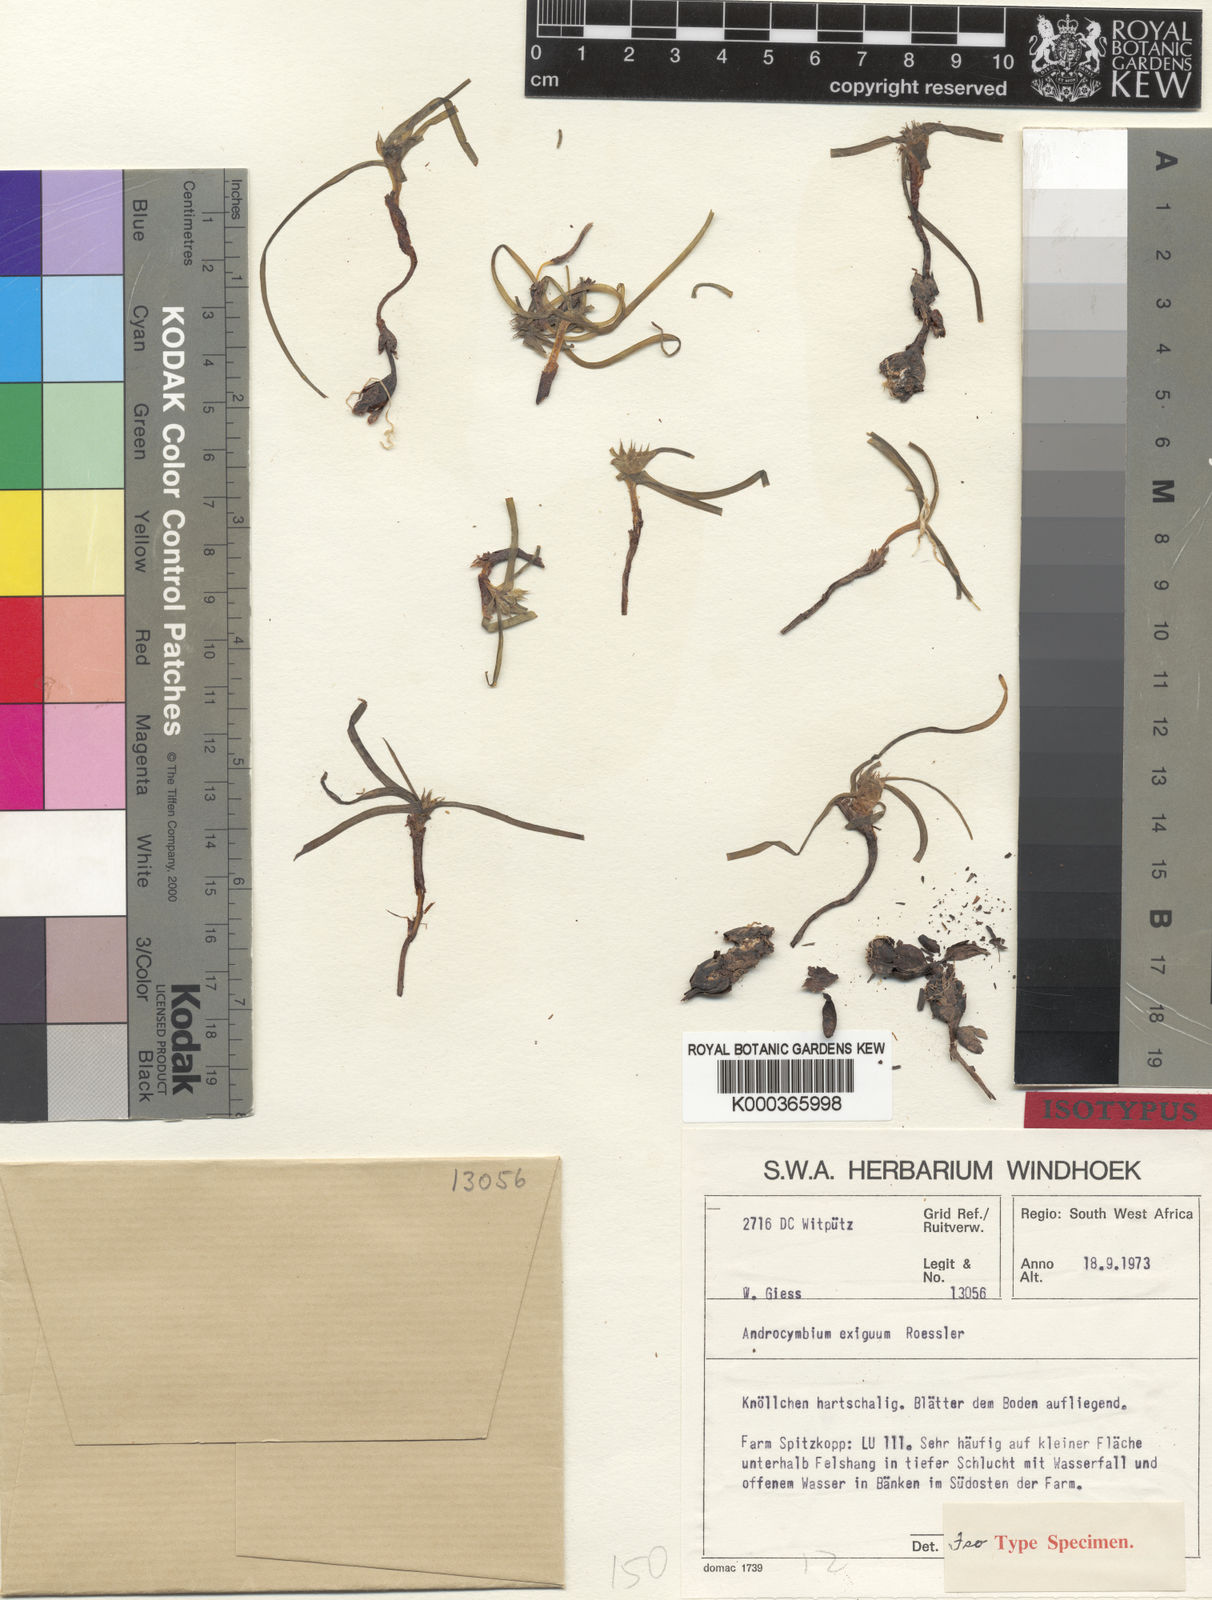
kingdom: Plantae
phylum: Tracheophyta
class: Liliopsida
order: Liliales
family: Colchicaceae
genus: Colchicum
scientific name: Colchicum exiguum
